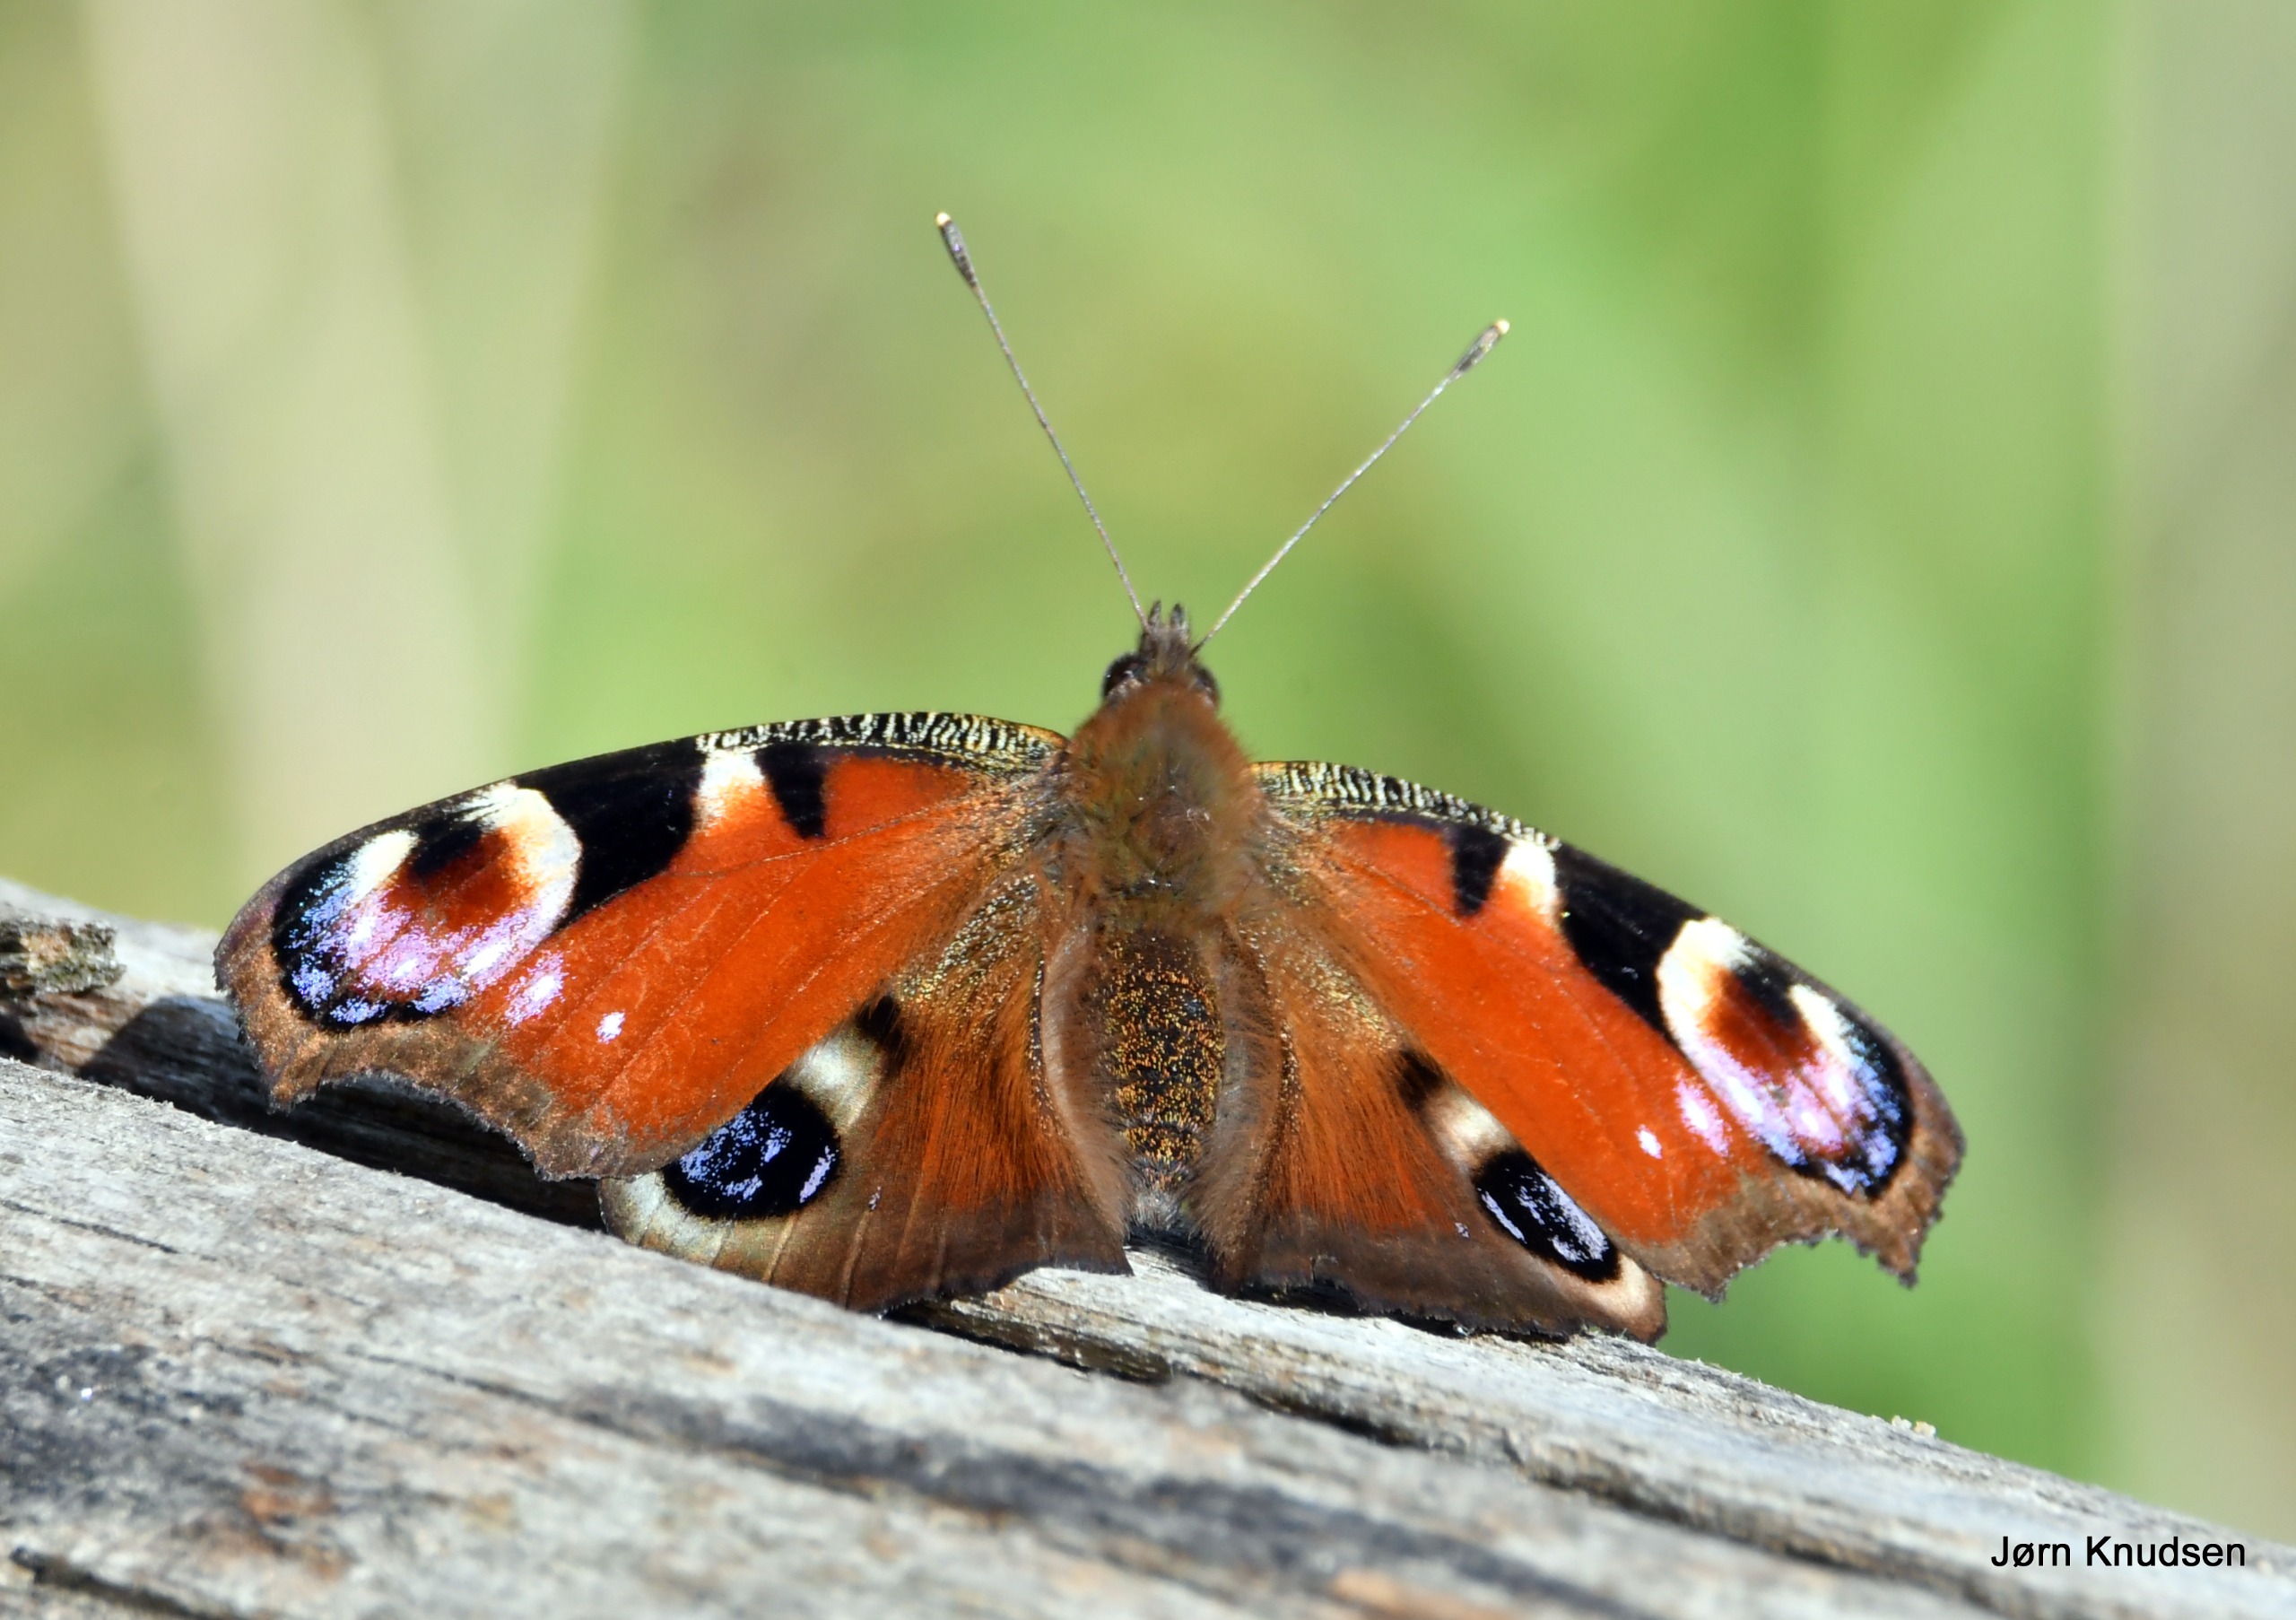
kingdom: Animalia
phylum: Arthropoda
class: Insecta
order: Lepidoptera
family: Nymphalidae
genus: Aglais
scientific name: Aglais io
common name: Dagpåfugleøje
